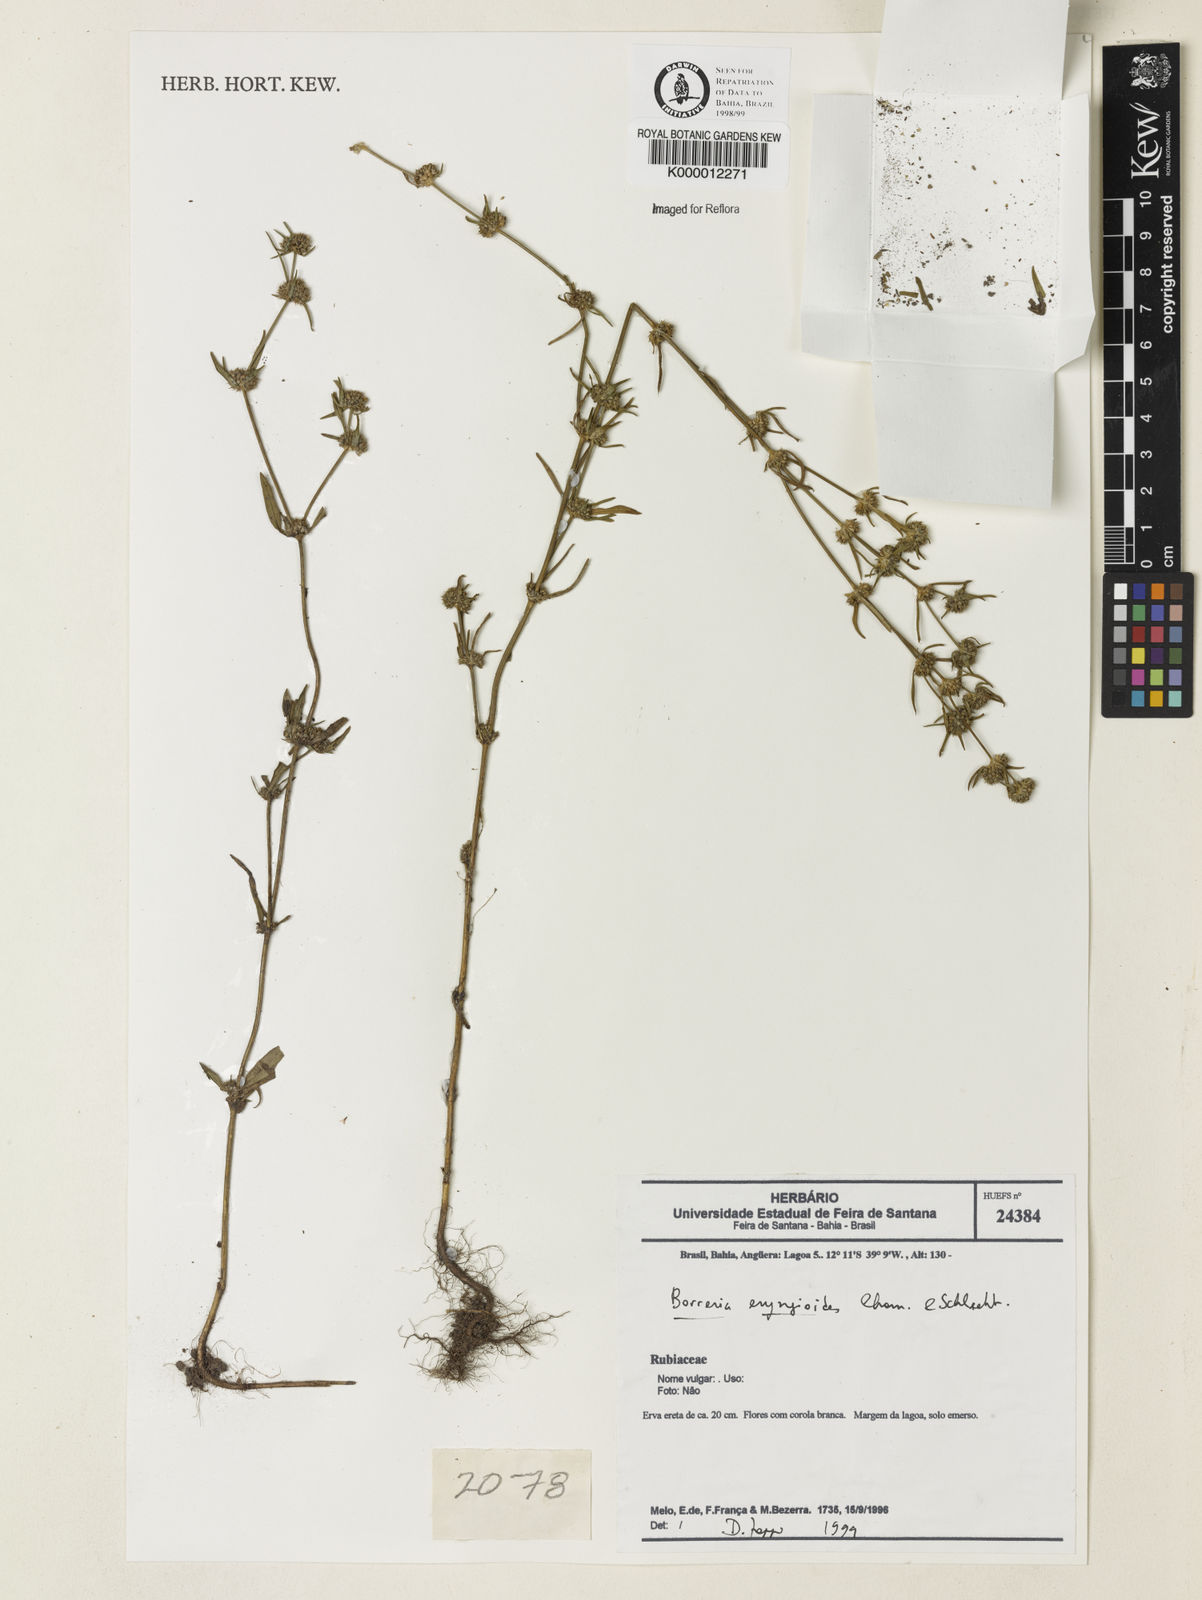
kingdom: Plantae
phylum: Tracheophyta
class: Magnoliopsida
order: Gentianales
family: Rubiaceae
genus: Spermacoce
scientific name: Spermacoce eryngioides
